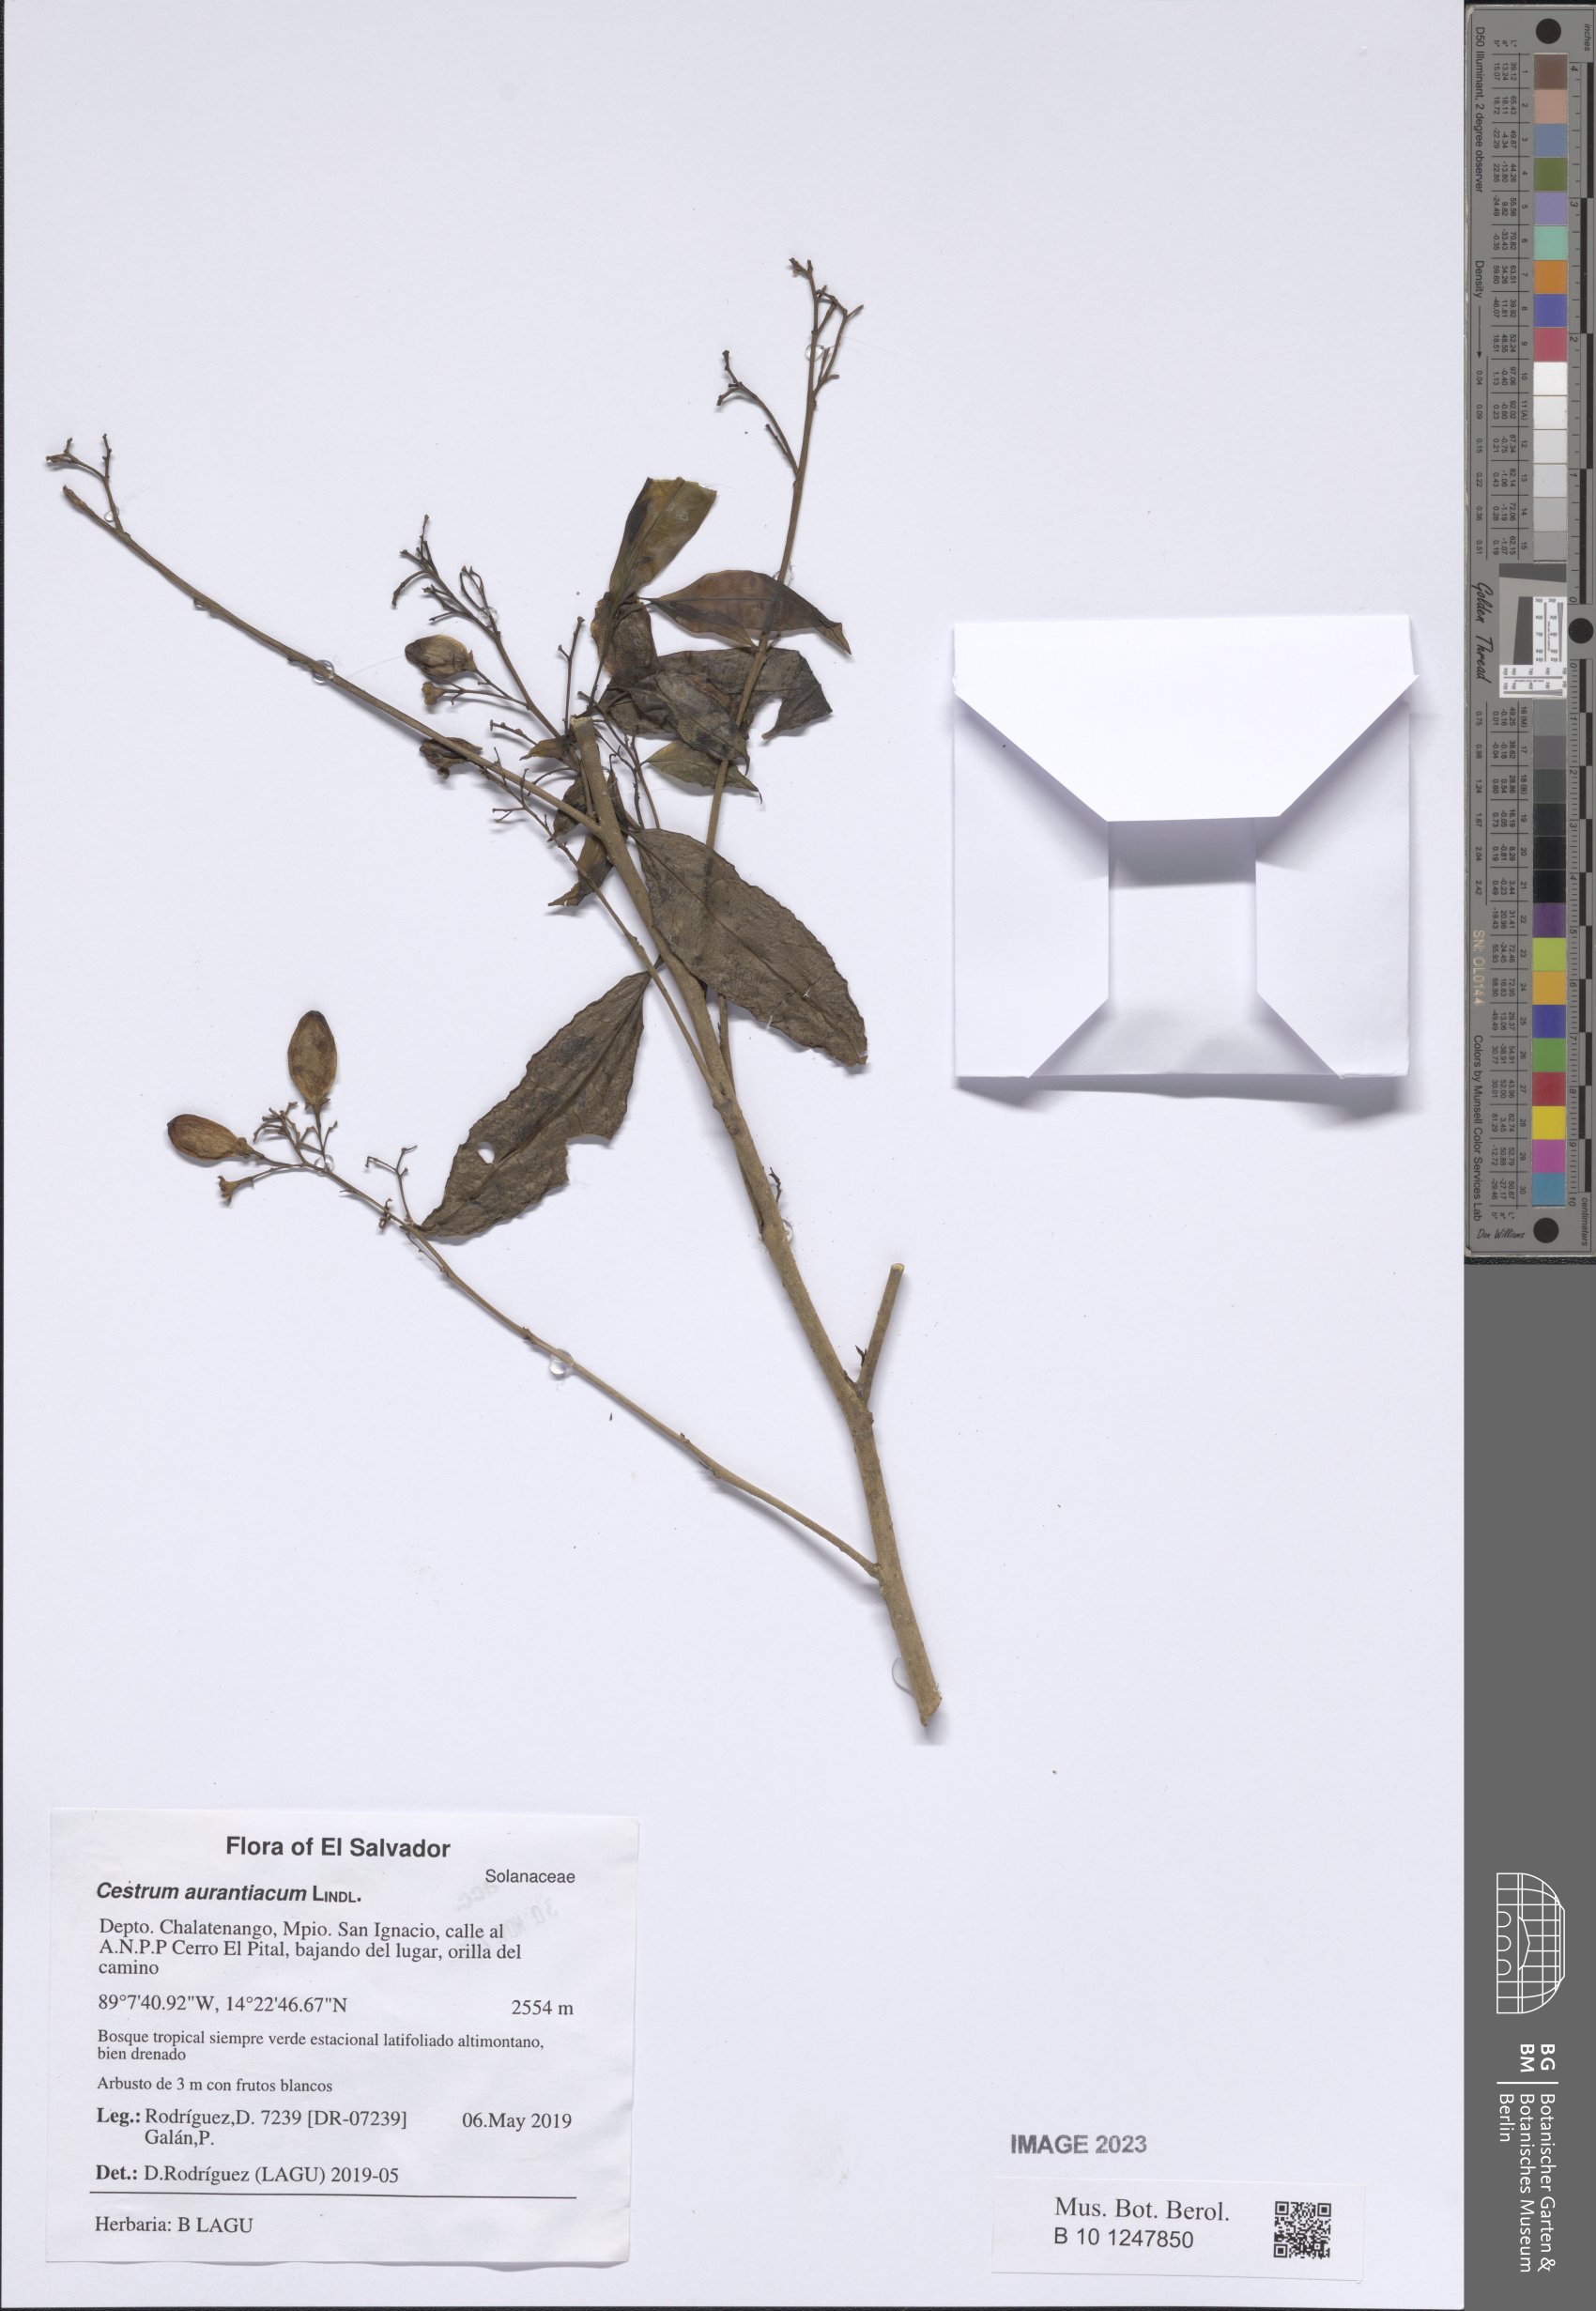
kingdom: Plantae
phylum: Tracheophyta
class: Magnoliopsida
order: Solanales
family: Solanaceae
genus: Cestrum
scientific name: Cestrum aurantiacum
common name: Orange cestrum
